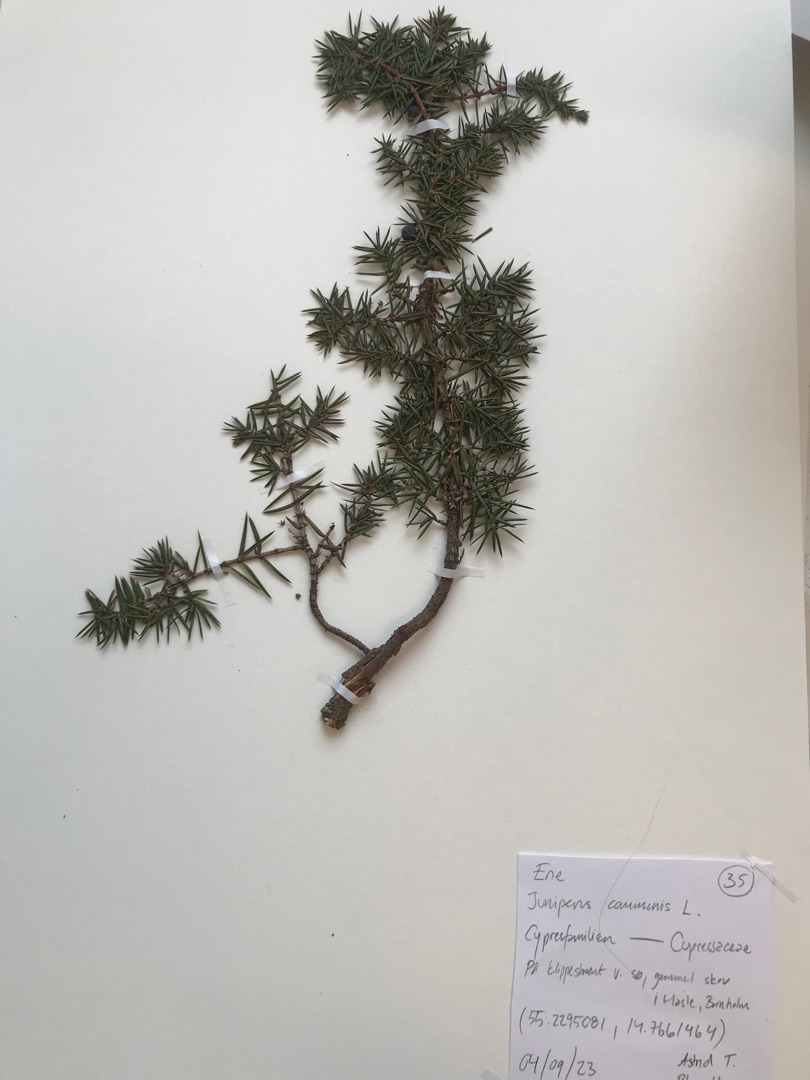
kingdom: Plantae
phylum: Tracheophyta
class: Pinopsida
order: Pinales
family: Cupressaceae
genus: Juniperus
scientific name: Juniperus communis
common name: Almindelig ene
